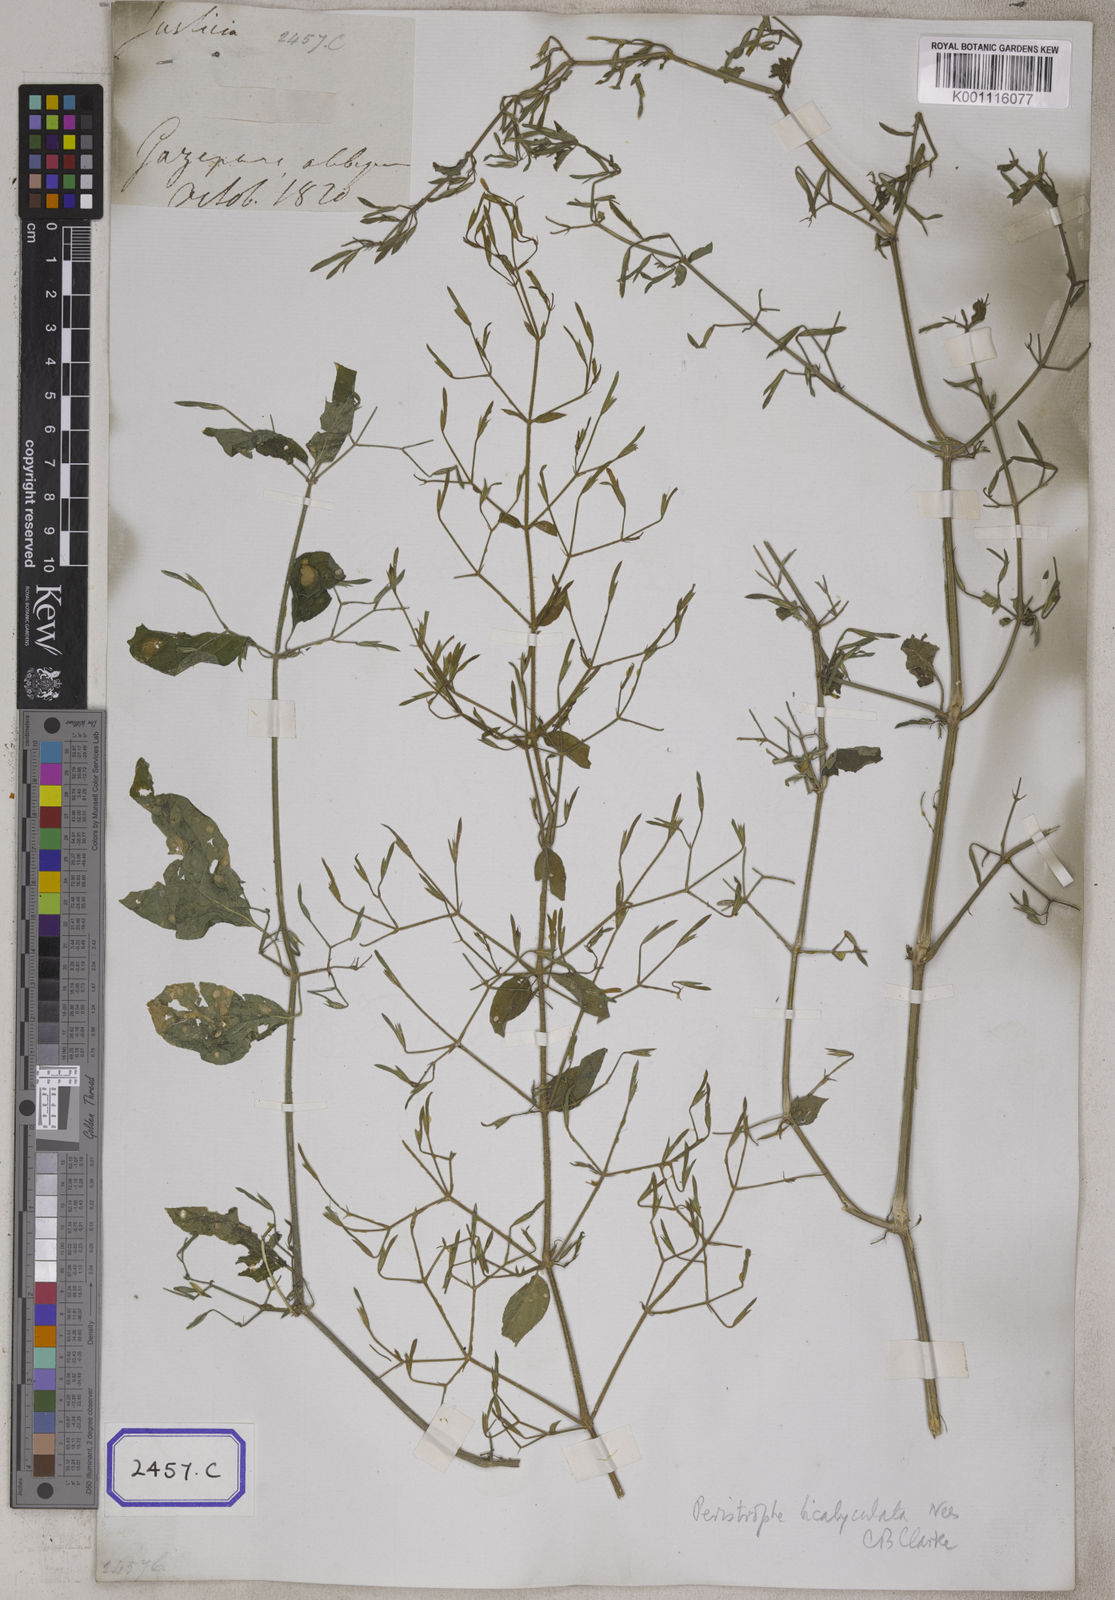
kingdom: Plantae
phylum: Tracheophyta
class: Magnoliopsida
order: Lamiales
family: Acanthaceae
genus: Dicliptera
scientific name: Dicliptera paniculata
